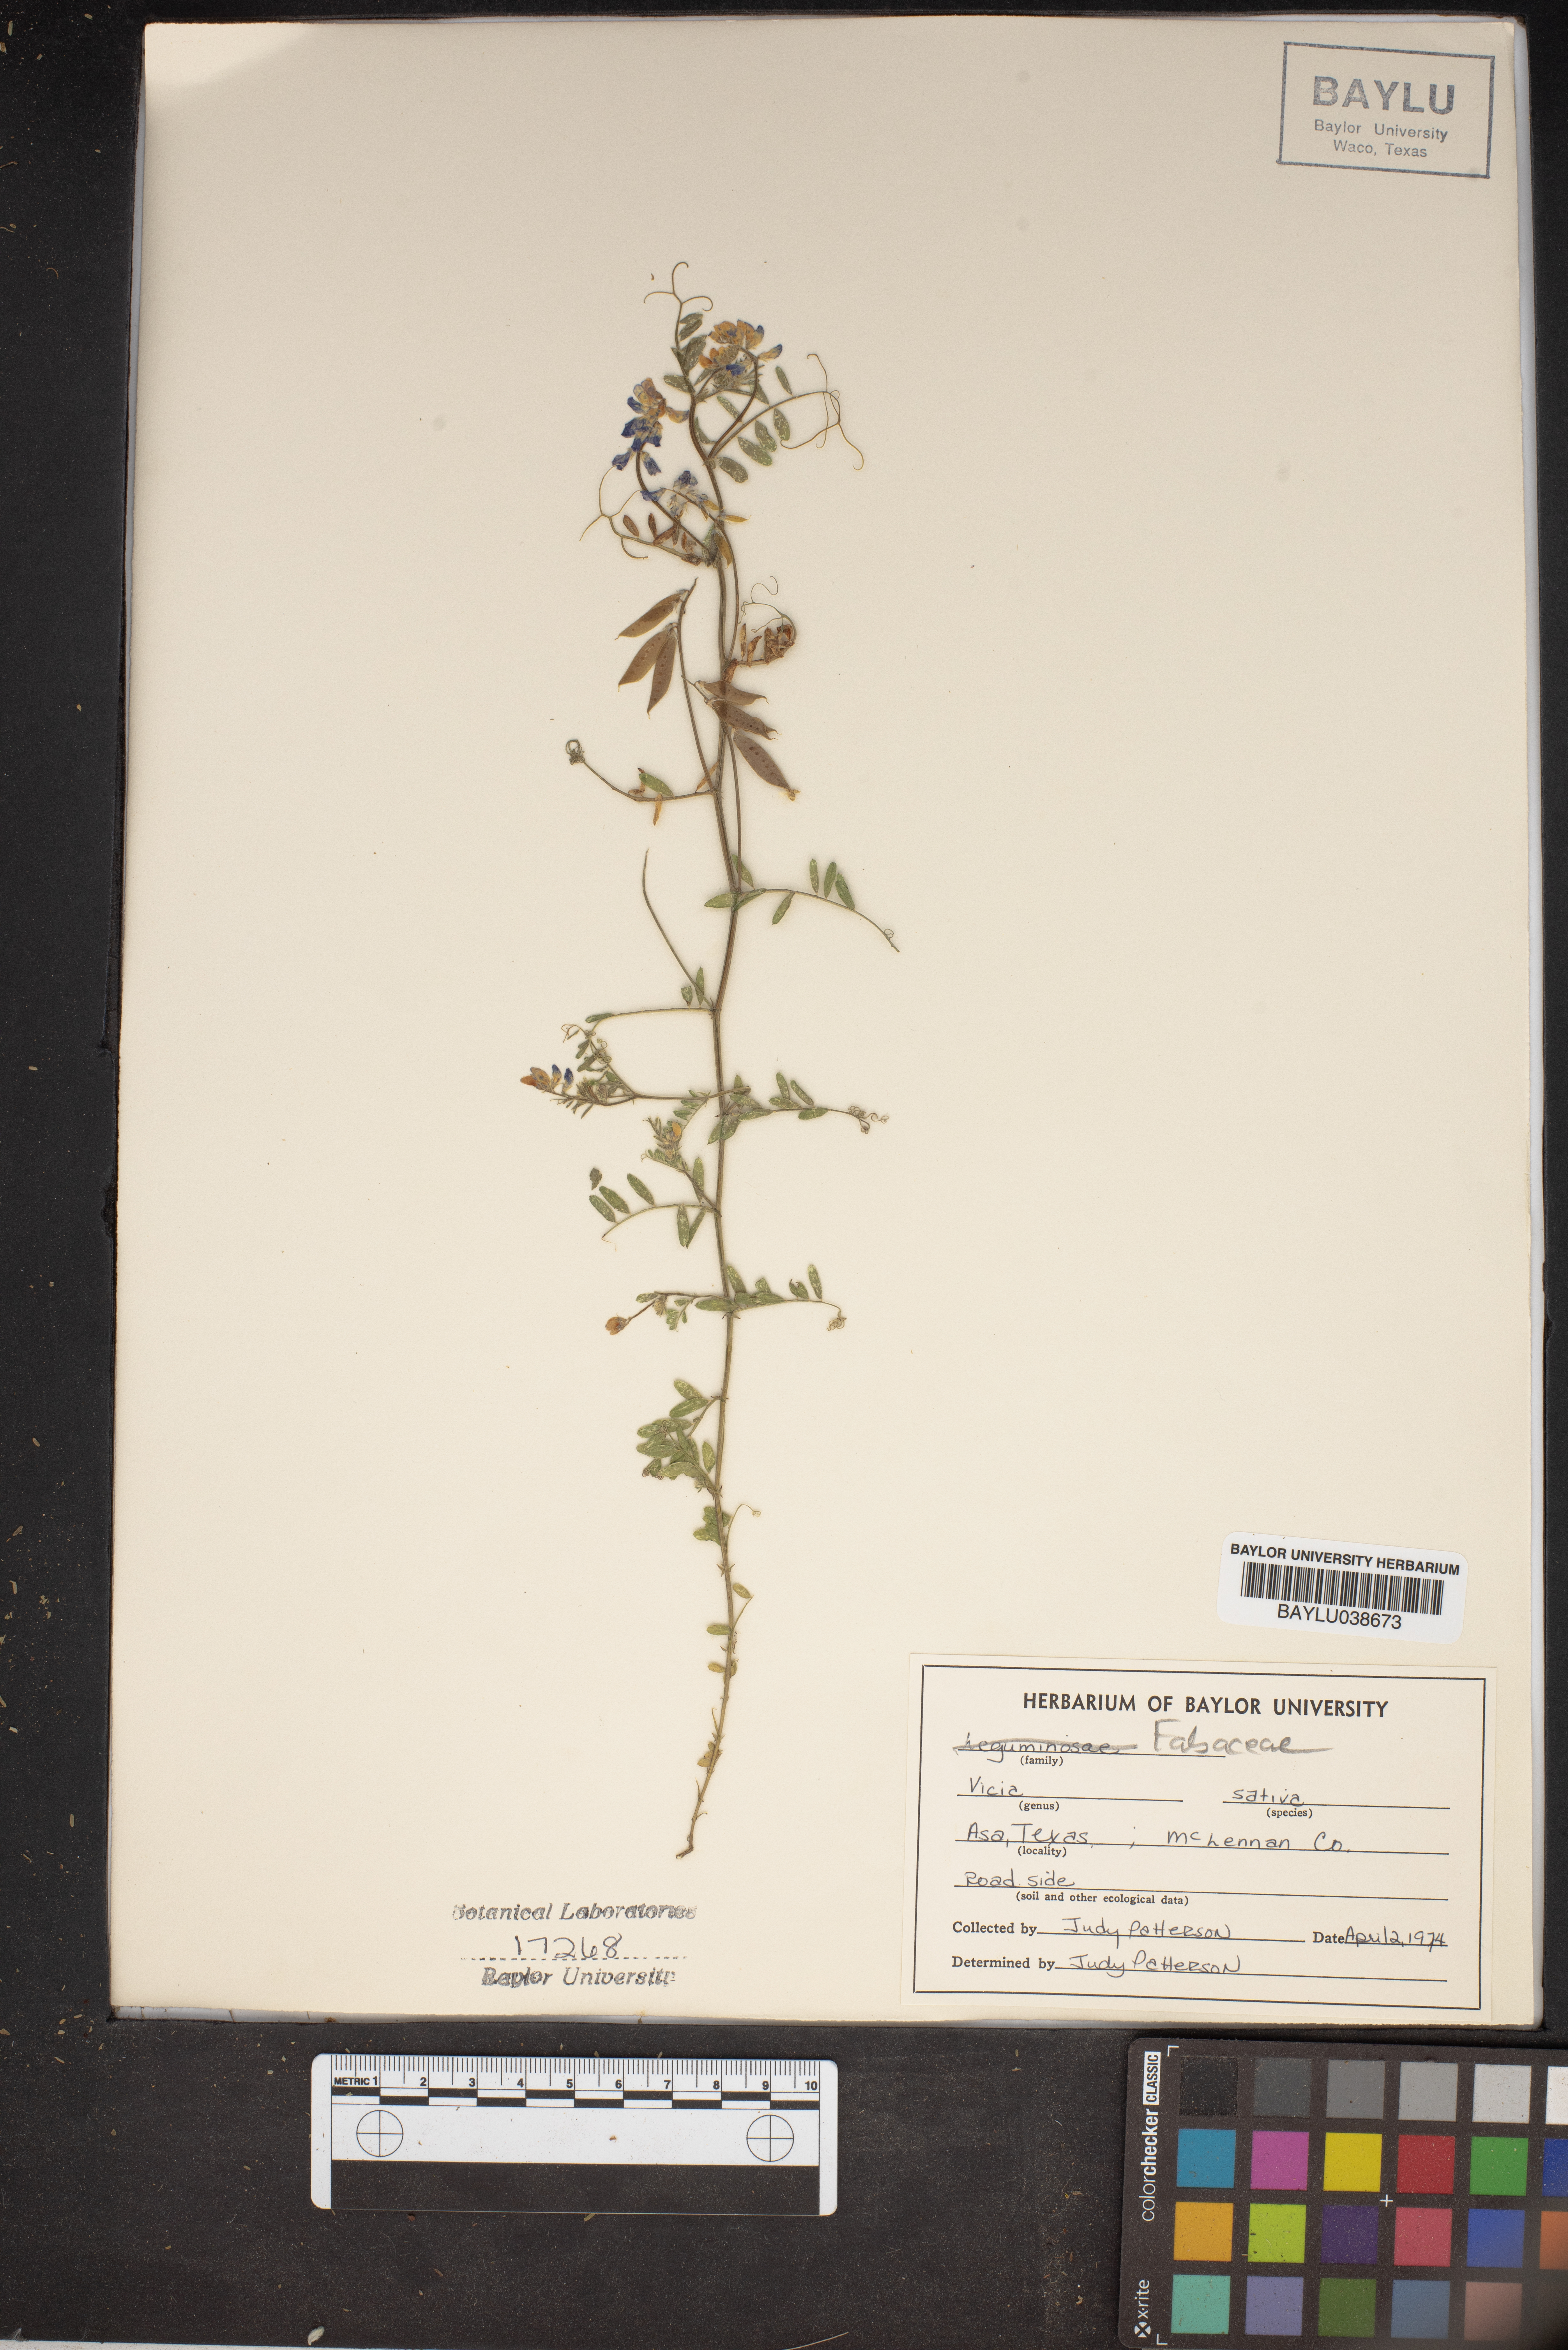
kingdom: Plantae
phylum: Tracheophyta
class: Magnoliopsida
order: Fabales
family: Fabaceae
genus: Vicia
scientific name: Vicia sativa
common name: Garden vetch
